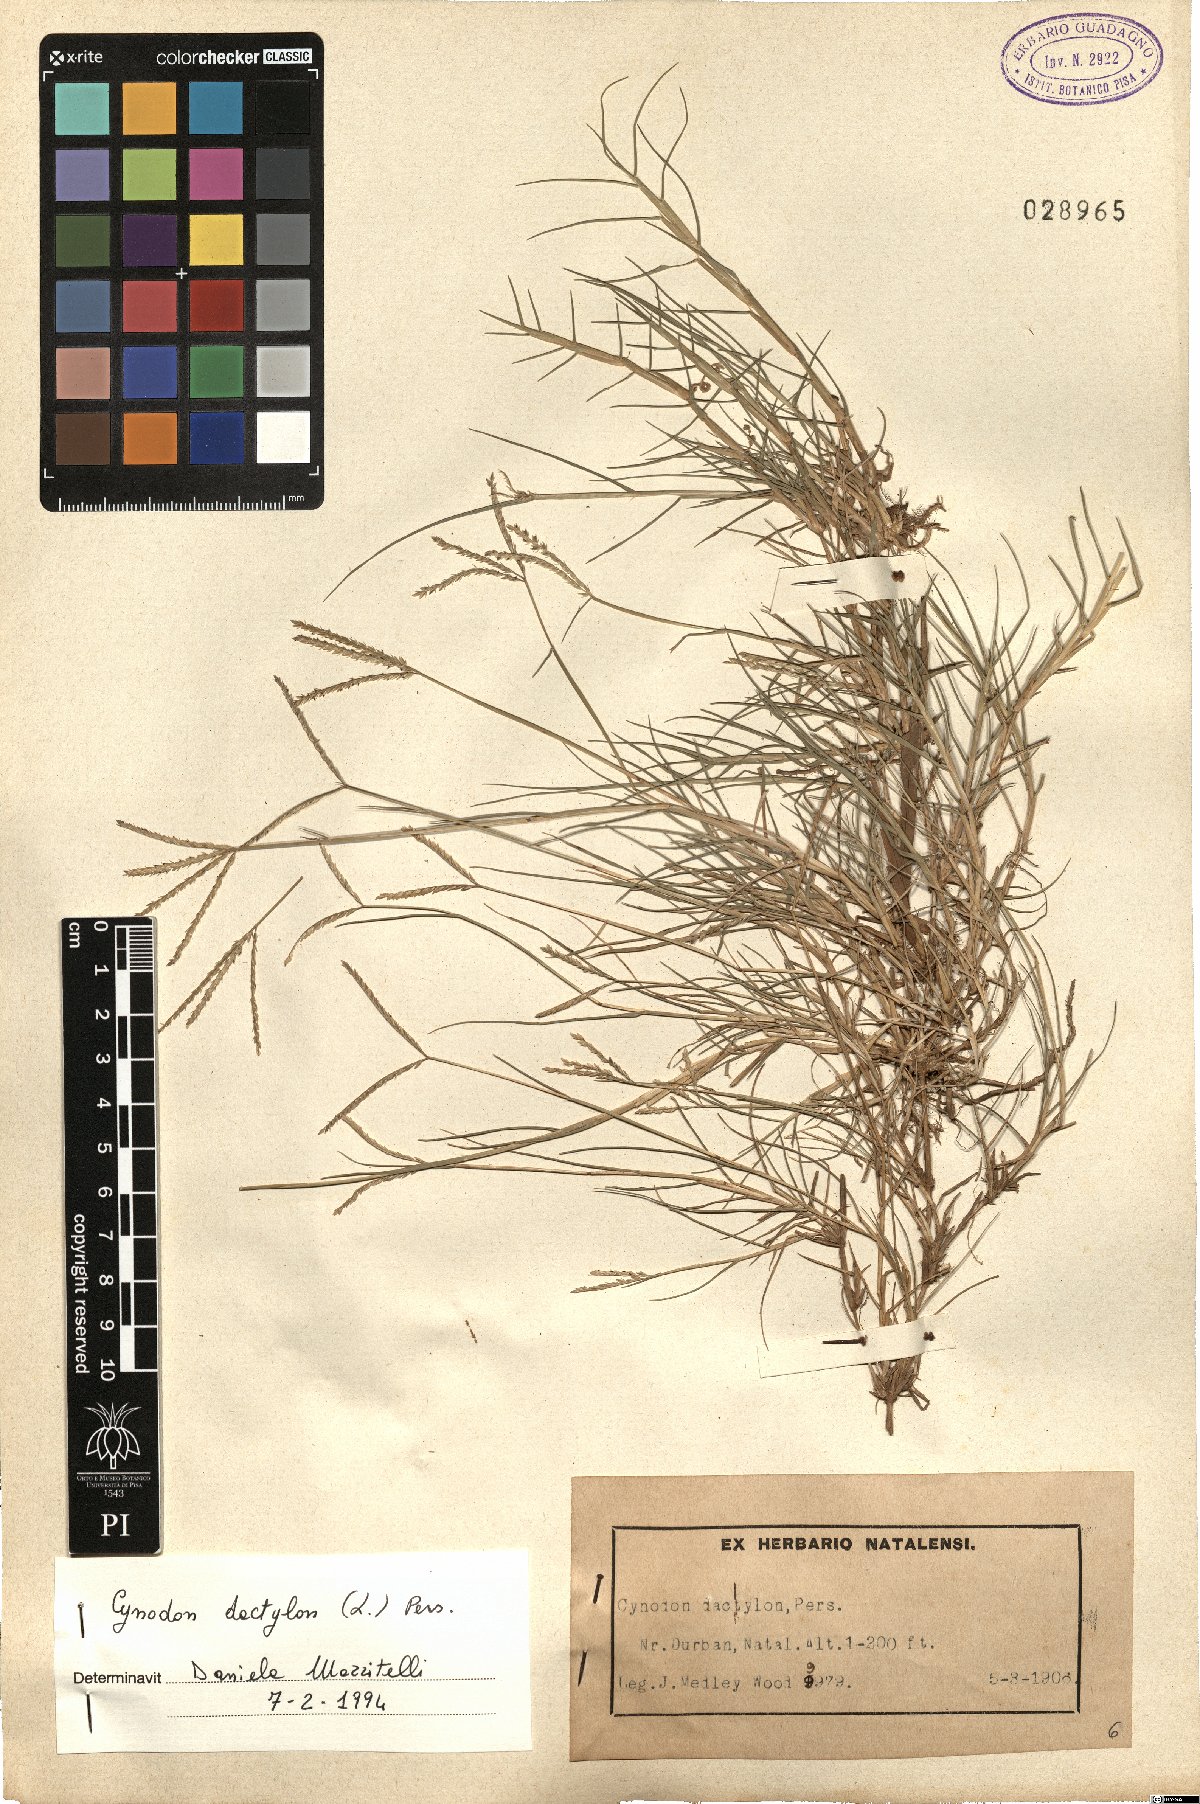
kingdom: Plantae
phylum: Tracheophyta
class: Liliopsida
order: Poales
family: Poaceae
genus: Cynodon
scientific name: Cynodon dactylon
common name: Bermuda grass
